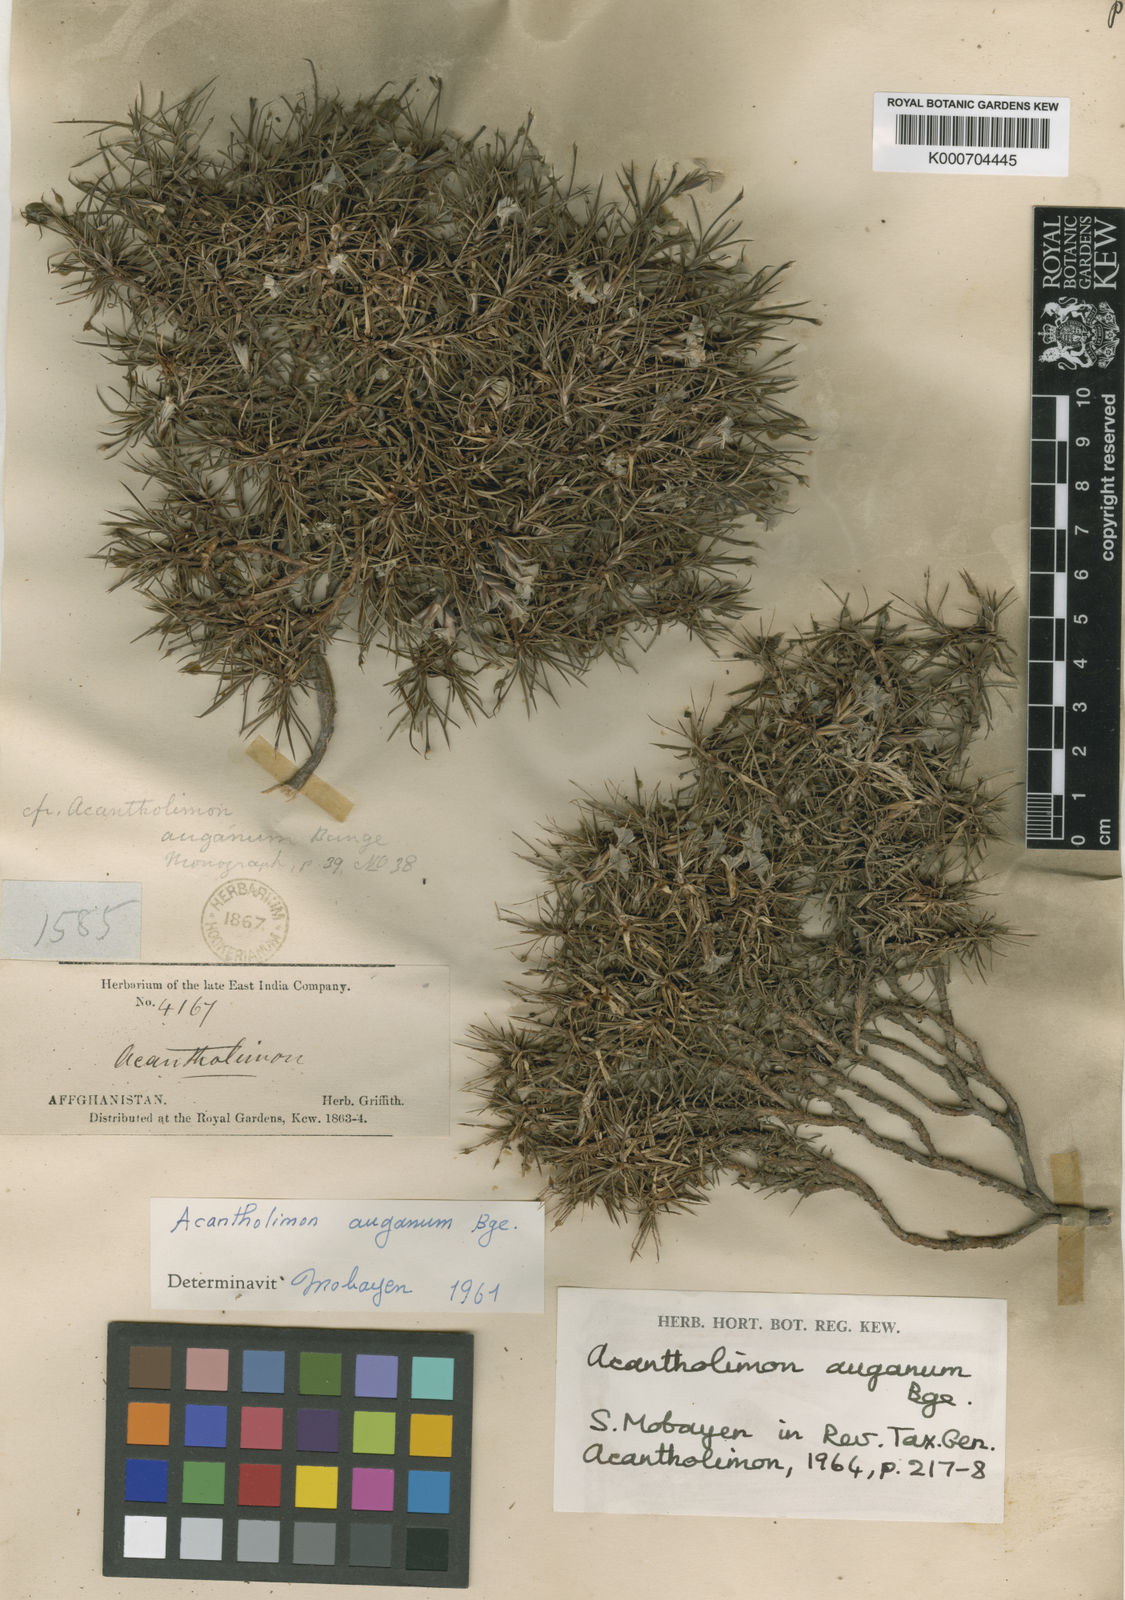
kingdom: Plantae
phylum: Tracheophyta
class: Magnoliopsida
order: Caryophyllales
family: Plumbaginaceae
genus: Acantholimon
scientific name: Acantholimon auganum
